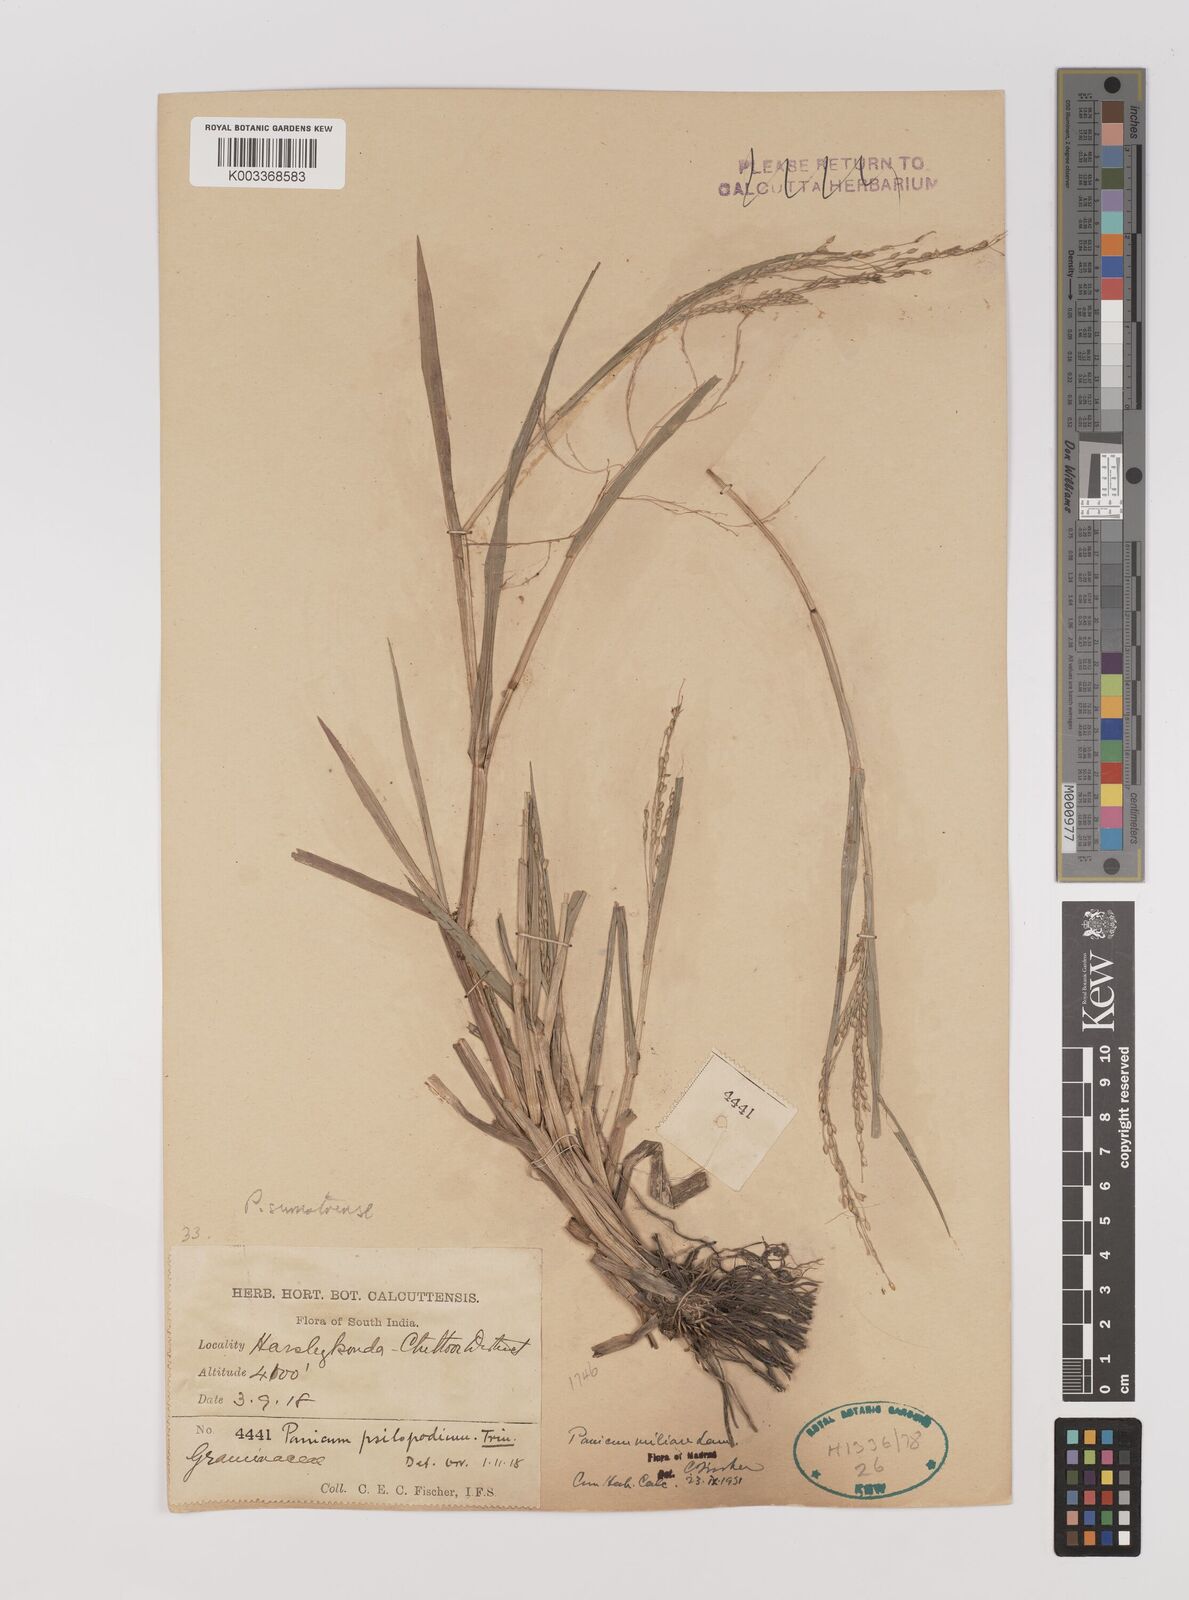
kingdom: Plantae
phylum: Tracheophyta
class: Liliopsida
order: Poales
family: Poaceae
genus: Panicum
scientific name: Panicum sumatrense
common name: Little millet
